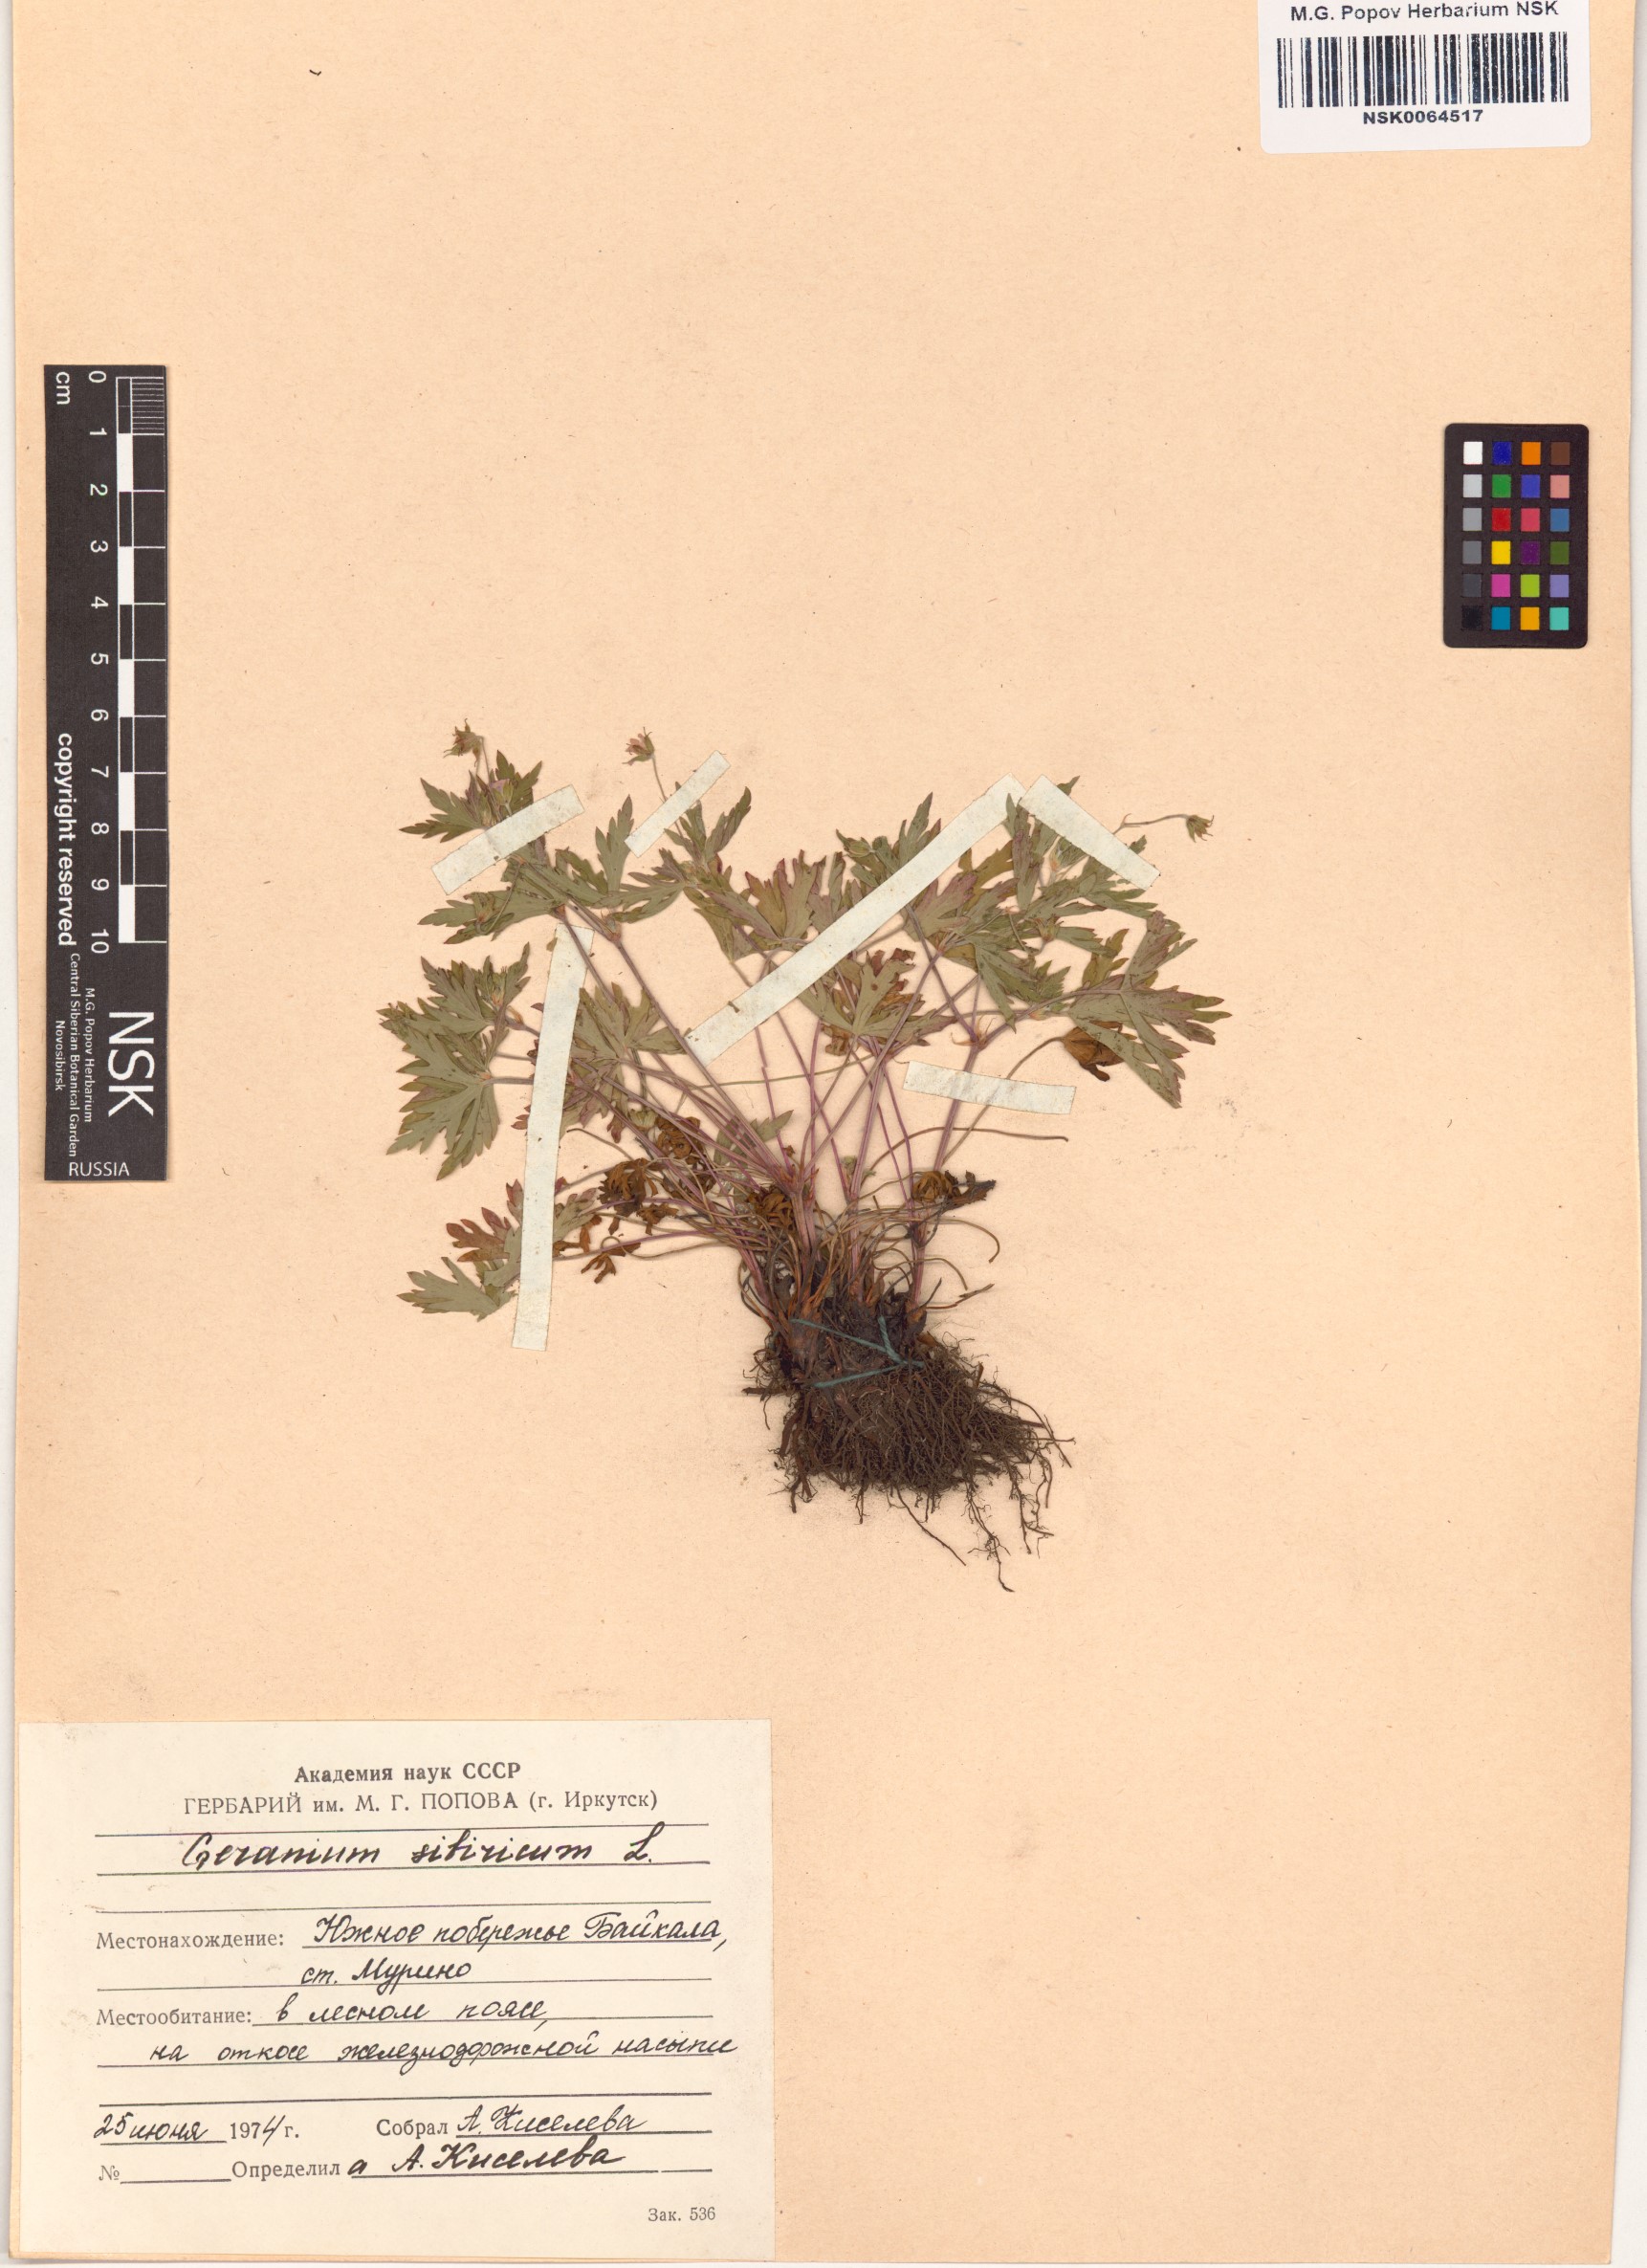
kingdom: Plantae
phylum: Tracheophyta
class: Magnoliopsida
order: Geraniales
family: Geraniaceae
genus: Geranium
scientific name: Geranium sibiricum
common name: Siberian crane's-bill
